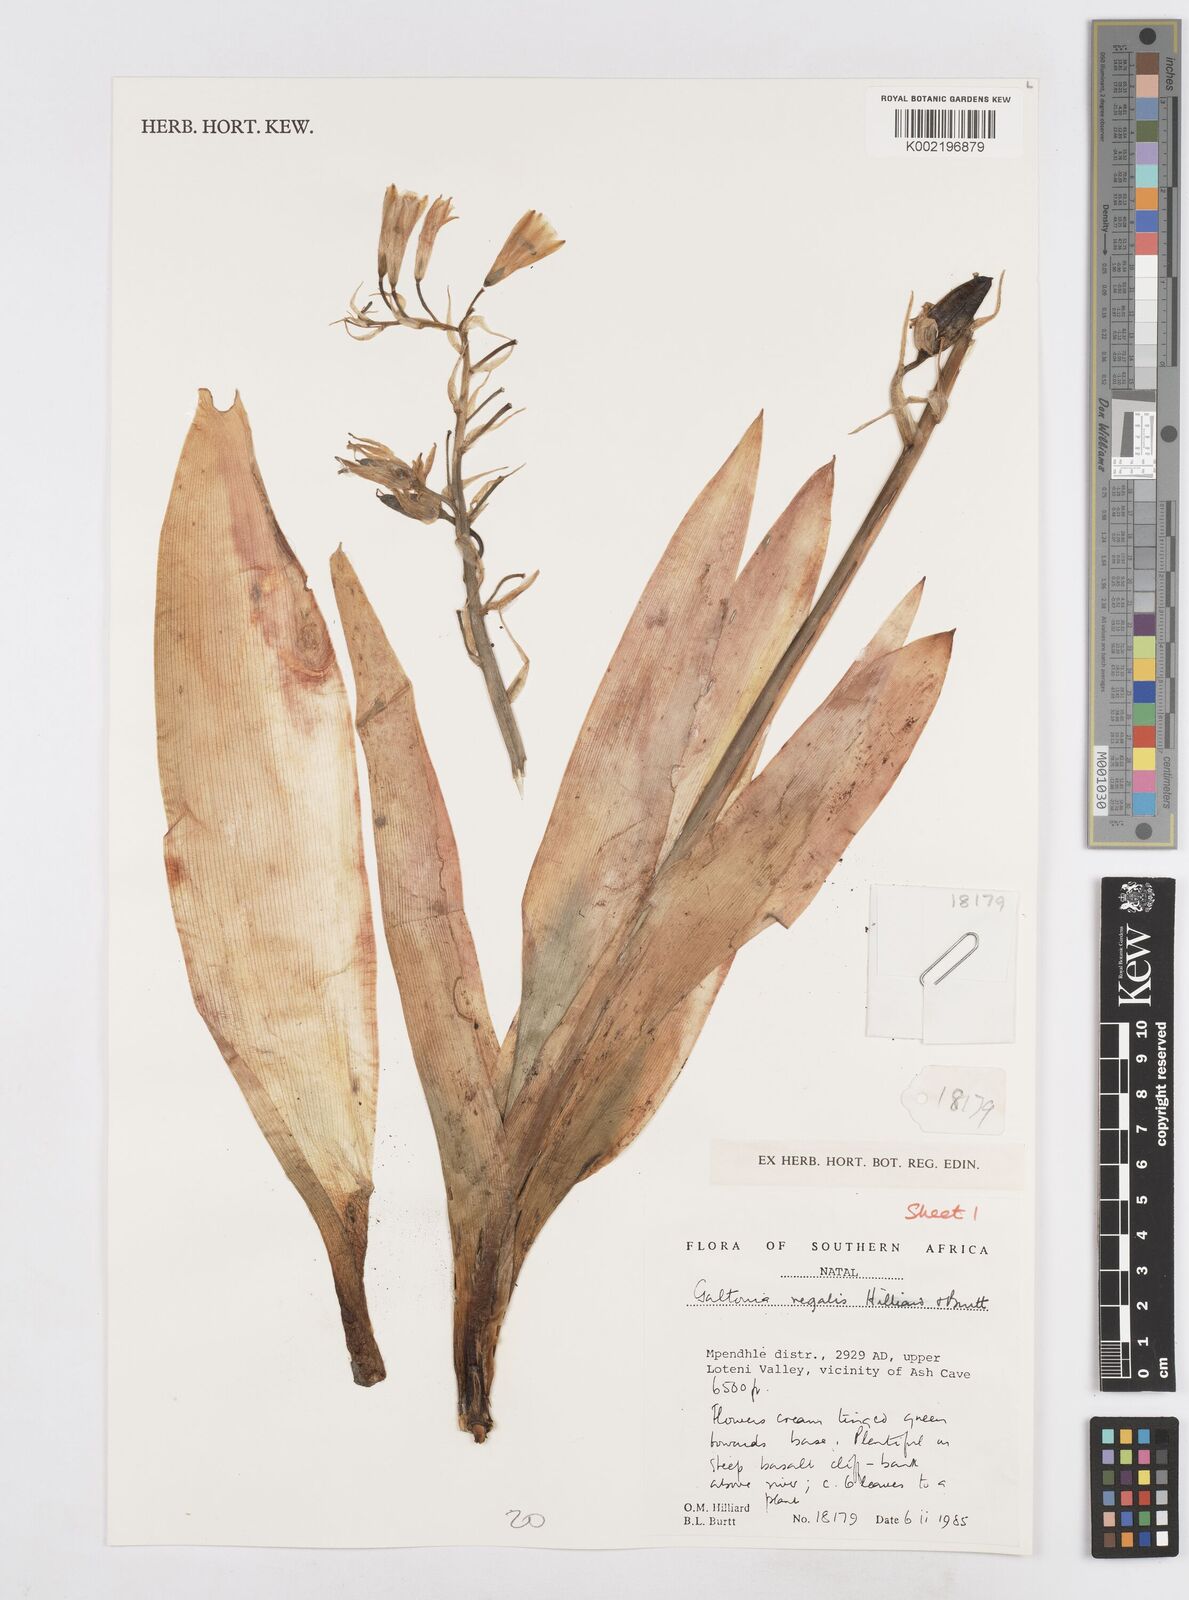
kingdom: Plantae
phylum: Tracheophyta
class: Liliopsida
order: Asparagales
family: Asparagaceae
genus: Ornithogalum
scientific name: Ornithogalum regale
